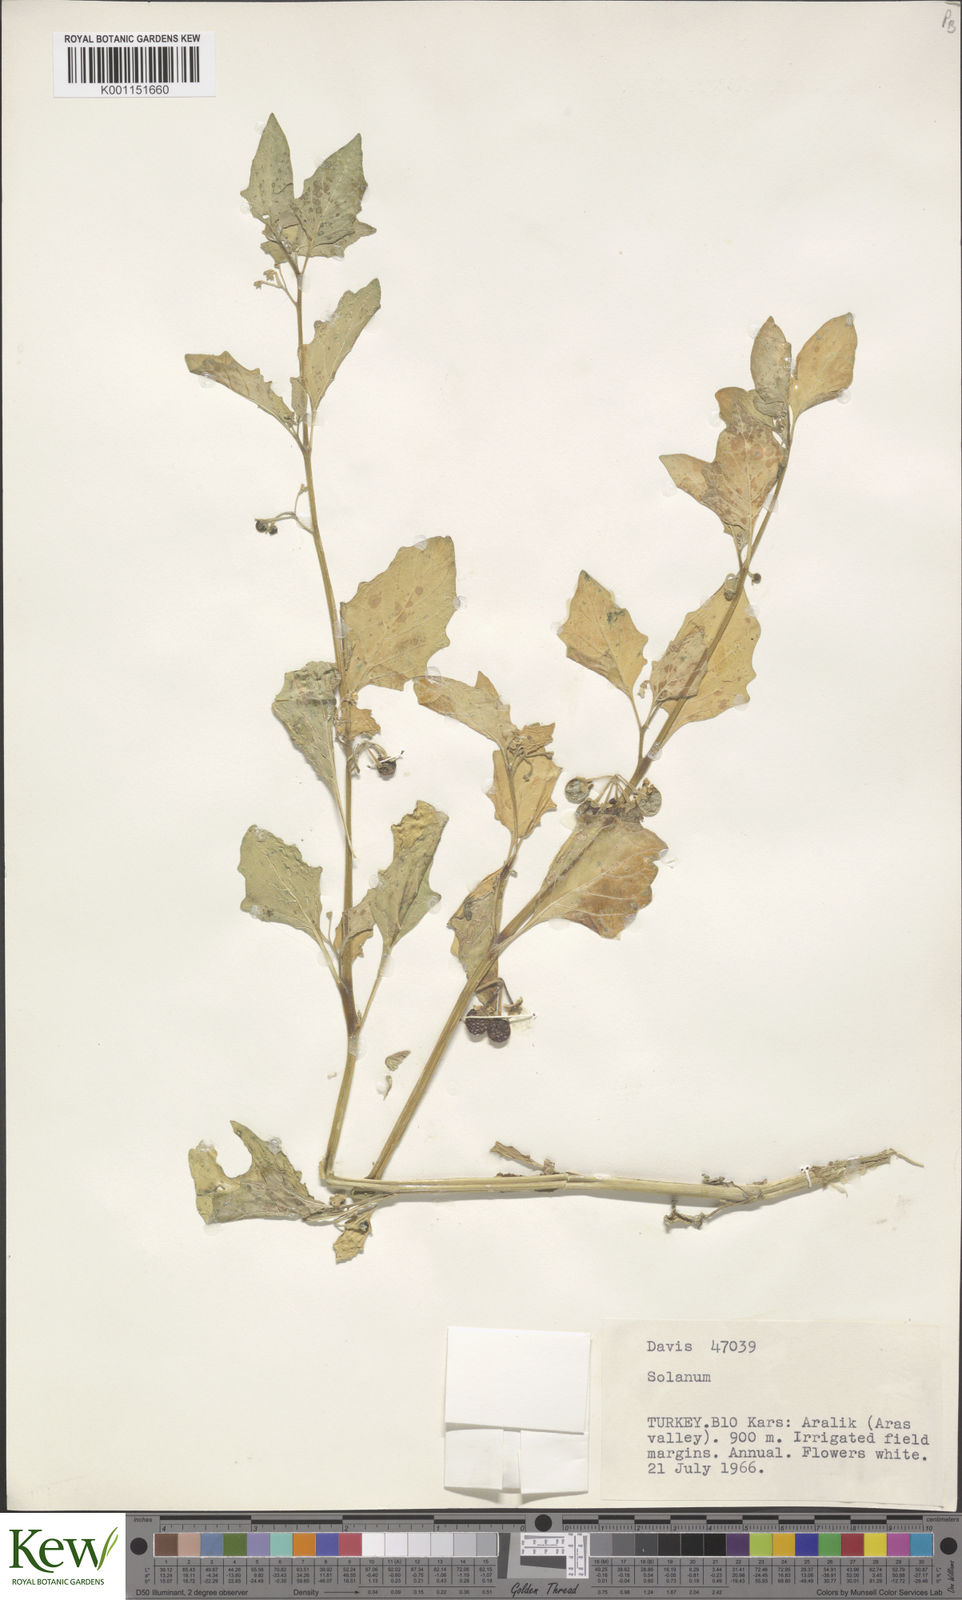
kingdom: Plantae
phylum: Tracheophyta
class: Magnoliopsida
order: Solanales
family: Solanaceae
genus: Solanum
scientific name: Solanum villosum
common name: Red nightshade
